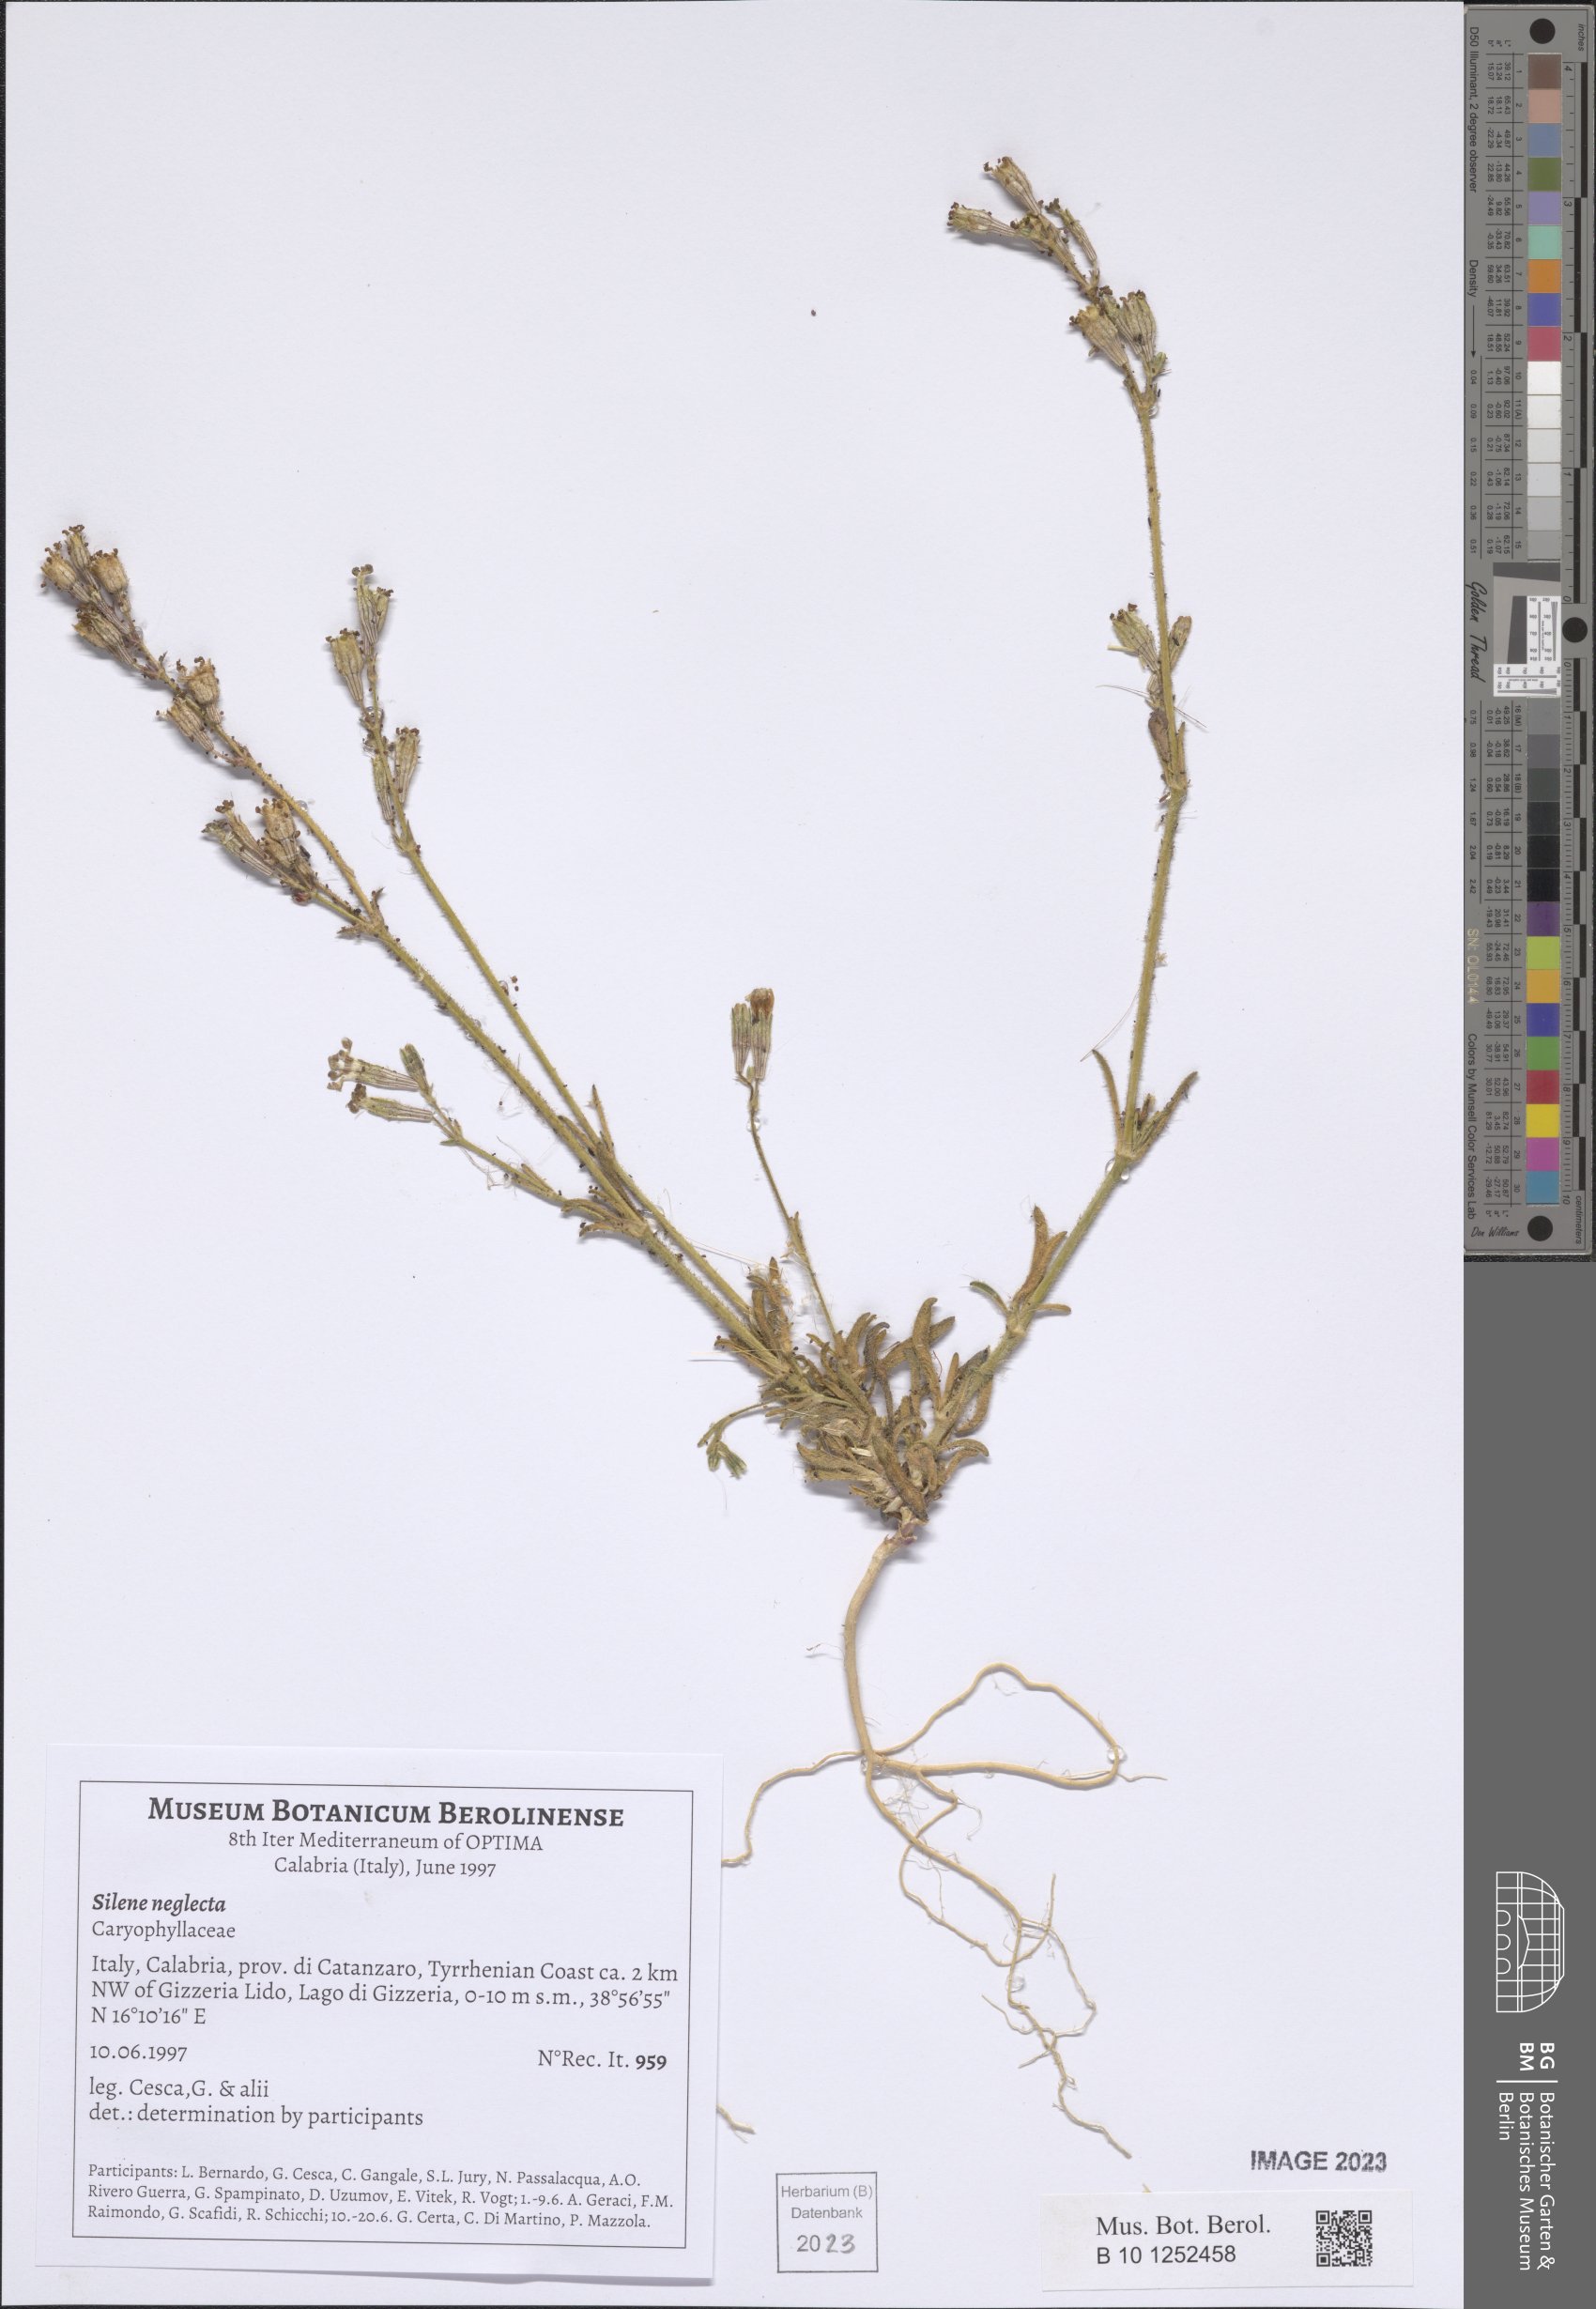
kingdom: Plantae
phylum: Tracheophyta
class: Magnoliopsida
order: Caryophyllales
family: Caryophyllaceae
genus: Silene
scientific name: Silene neglecta
